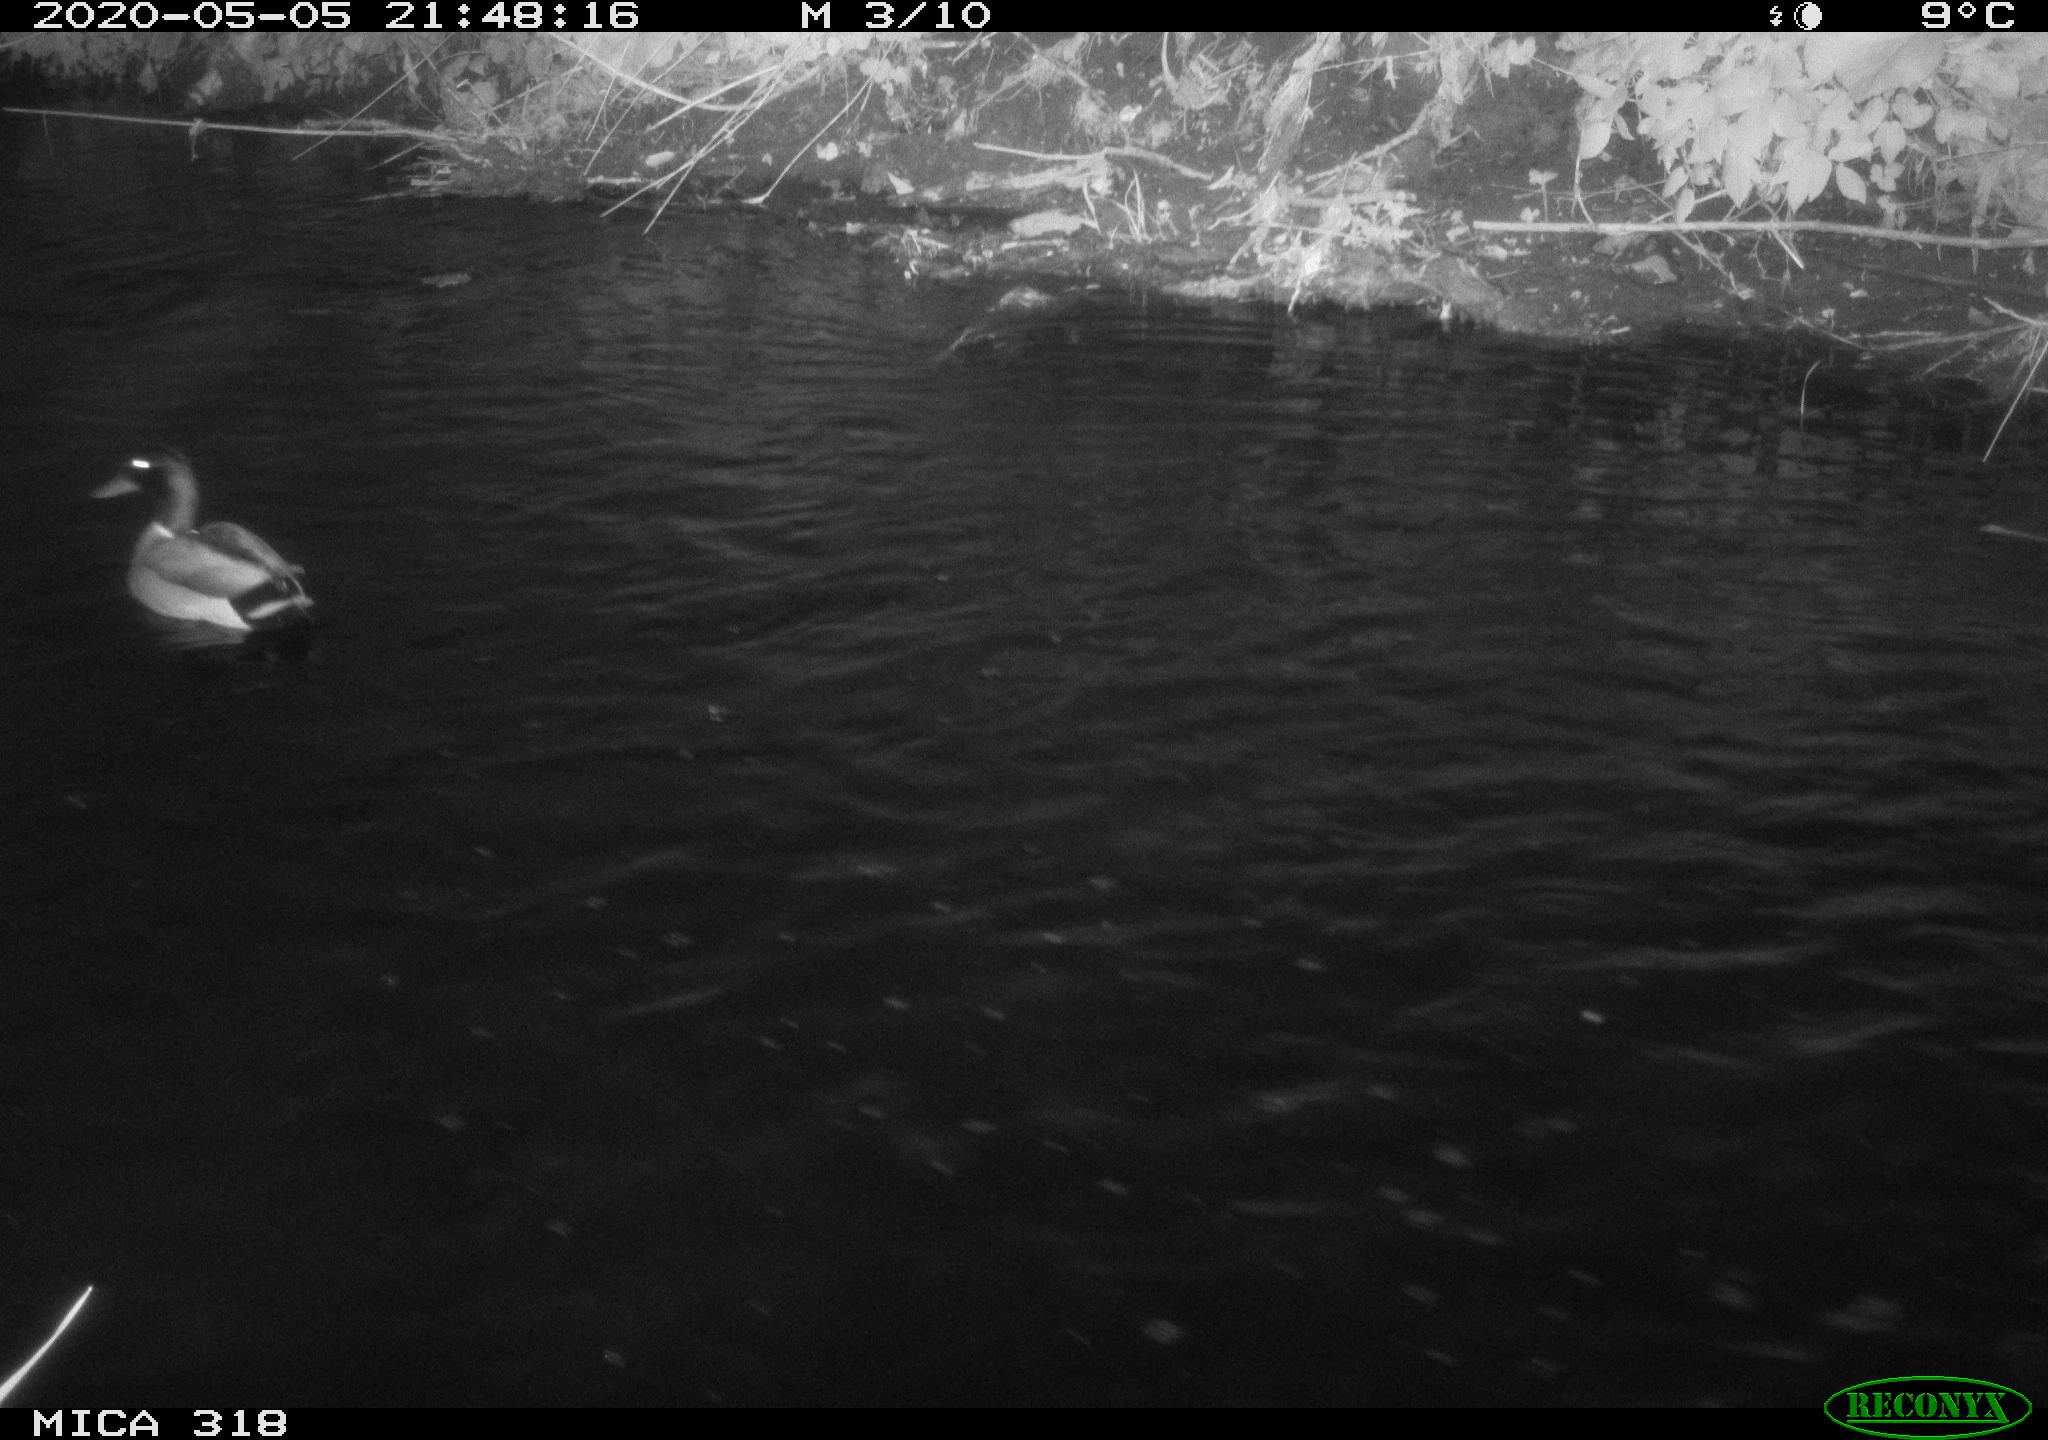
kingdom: Animalia
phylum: Chordata
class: Aves
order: Anseriformes
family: Anatidae
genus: Anas
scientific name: Anas platyrhynchos
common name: Mallard
